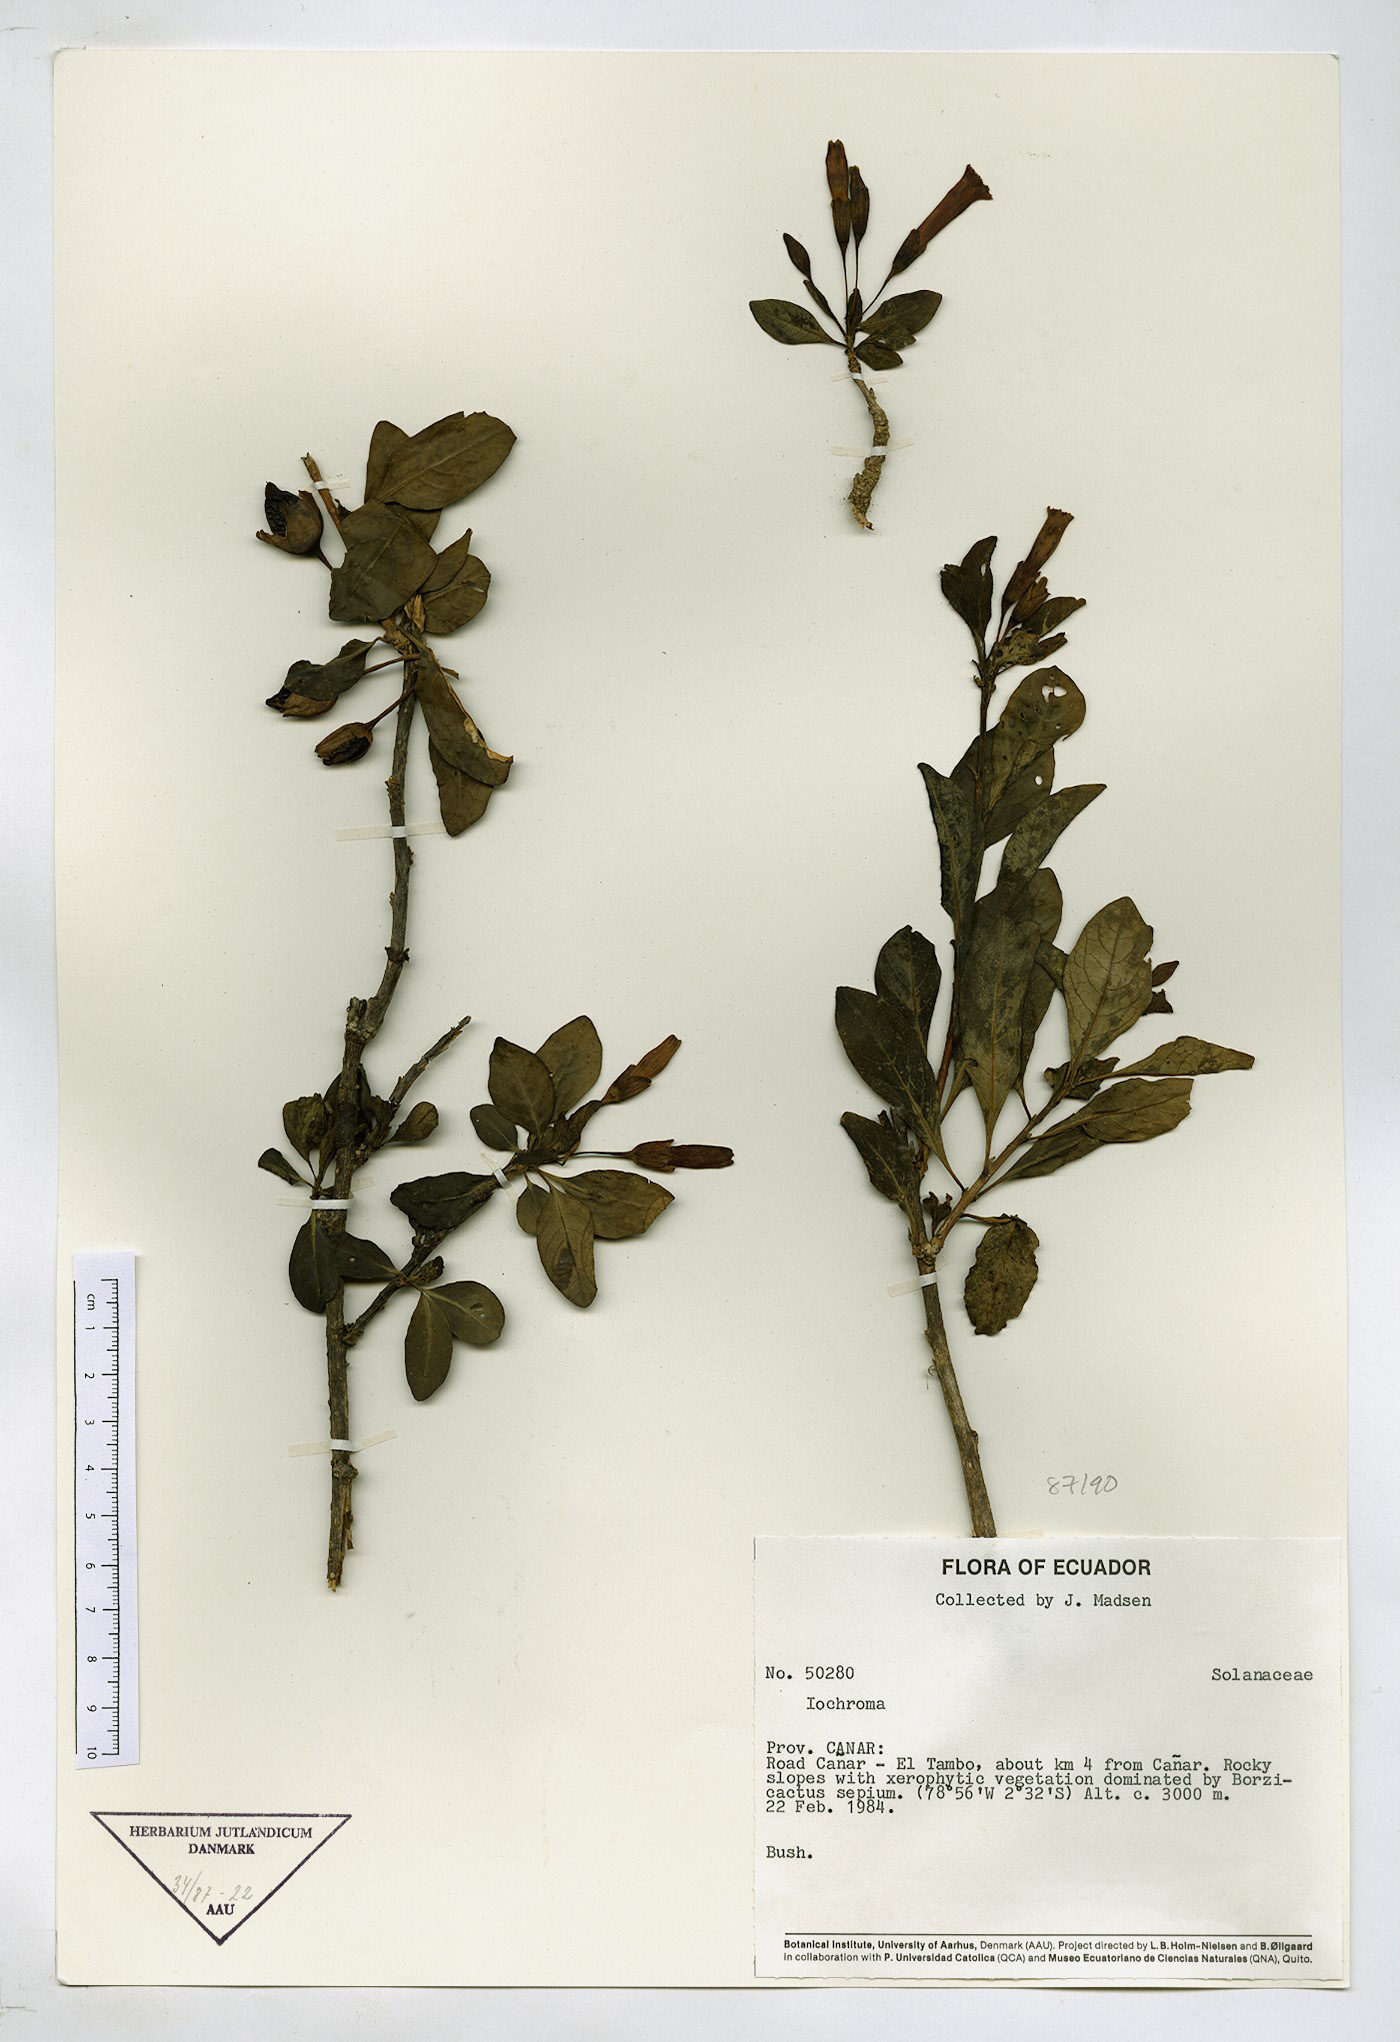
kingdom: Plantae
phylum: Tracheophyta
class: Magnoliopsida
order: Solanales
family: Solanaceae
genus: Iochroma
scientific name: Iochroma
